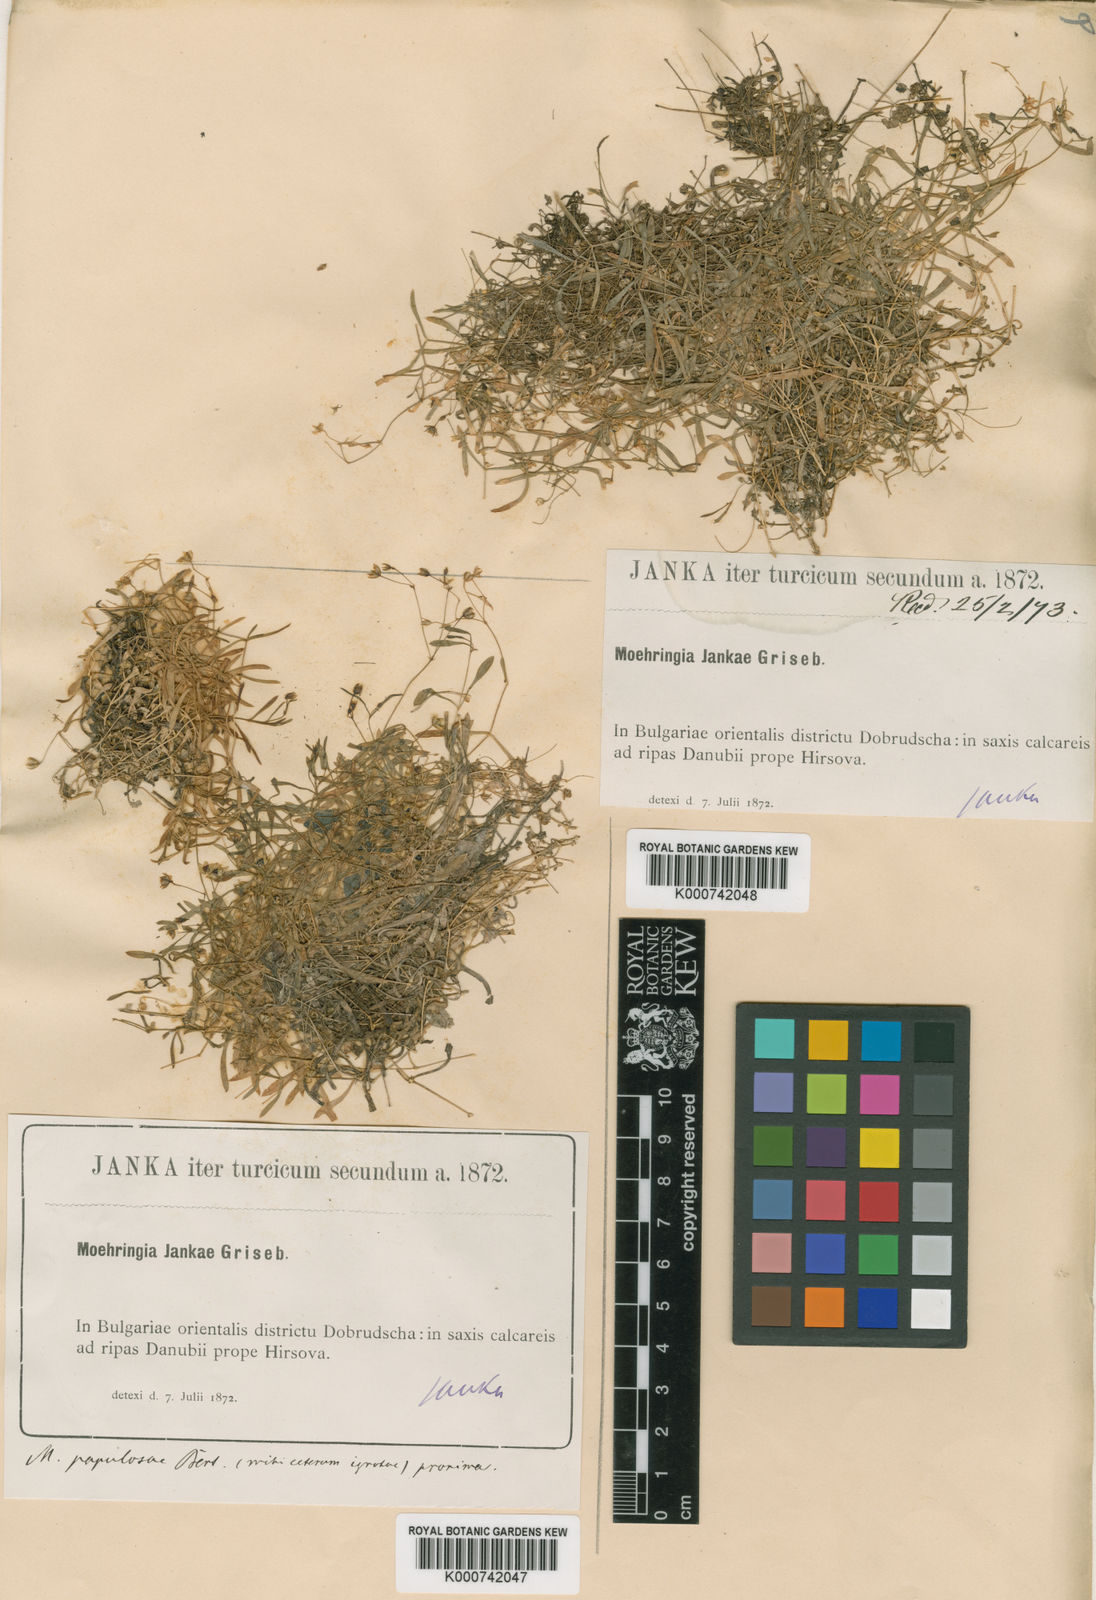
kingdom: Plantae
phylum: Tracheophyta
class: Magnoliopsida
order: Caryophyllales
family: Caryophyllaceae
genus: Moehringia
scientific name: Moehringia jankae
